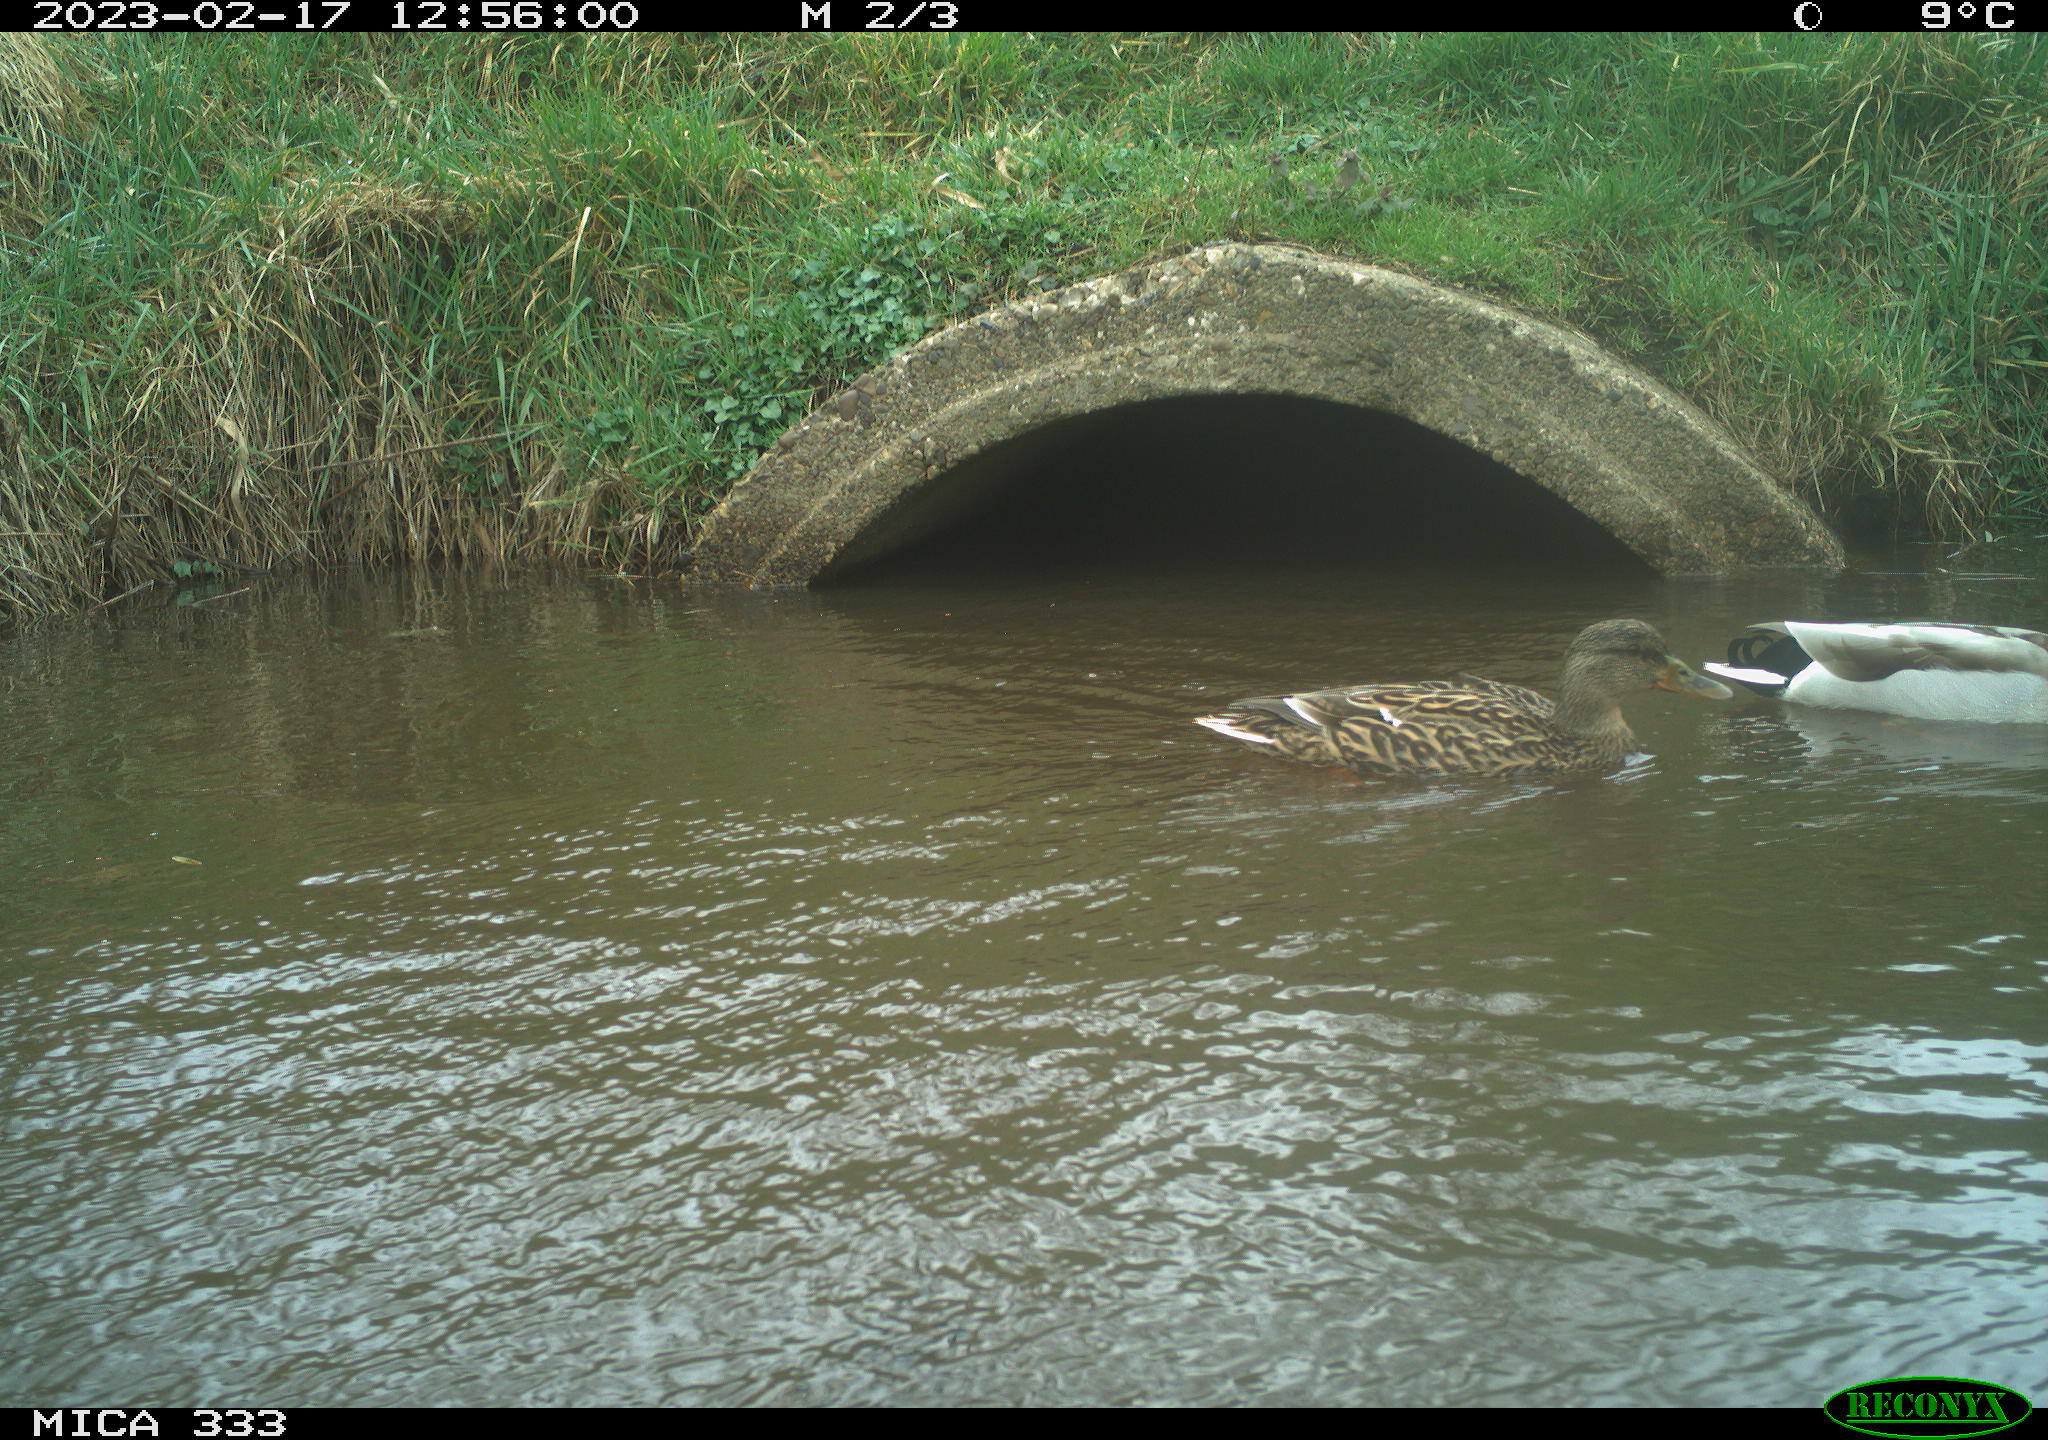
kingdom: Animalia
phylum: Chordata
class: Aves
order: Anseriformes
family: Anatidae
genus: Anas
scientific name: Anas
